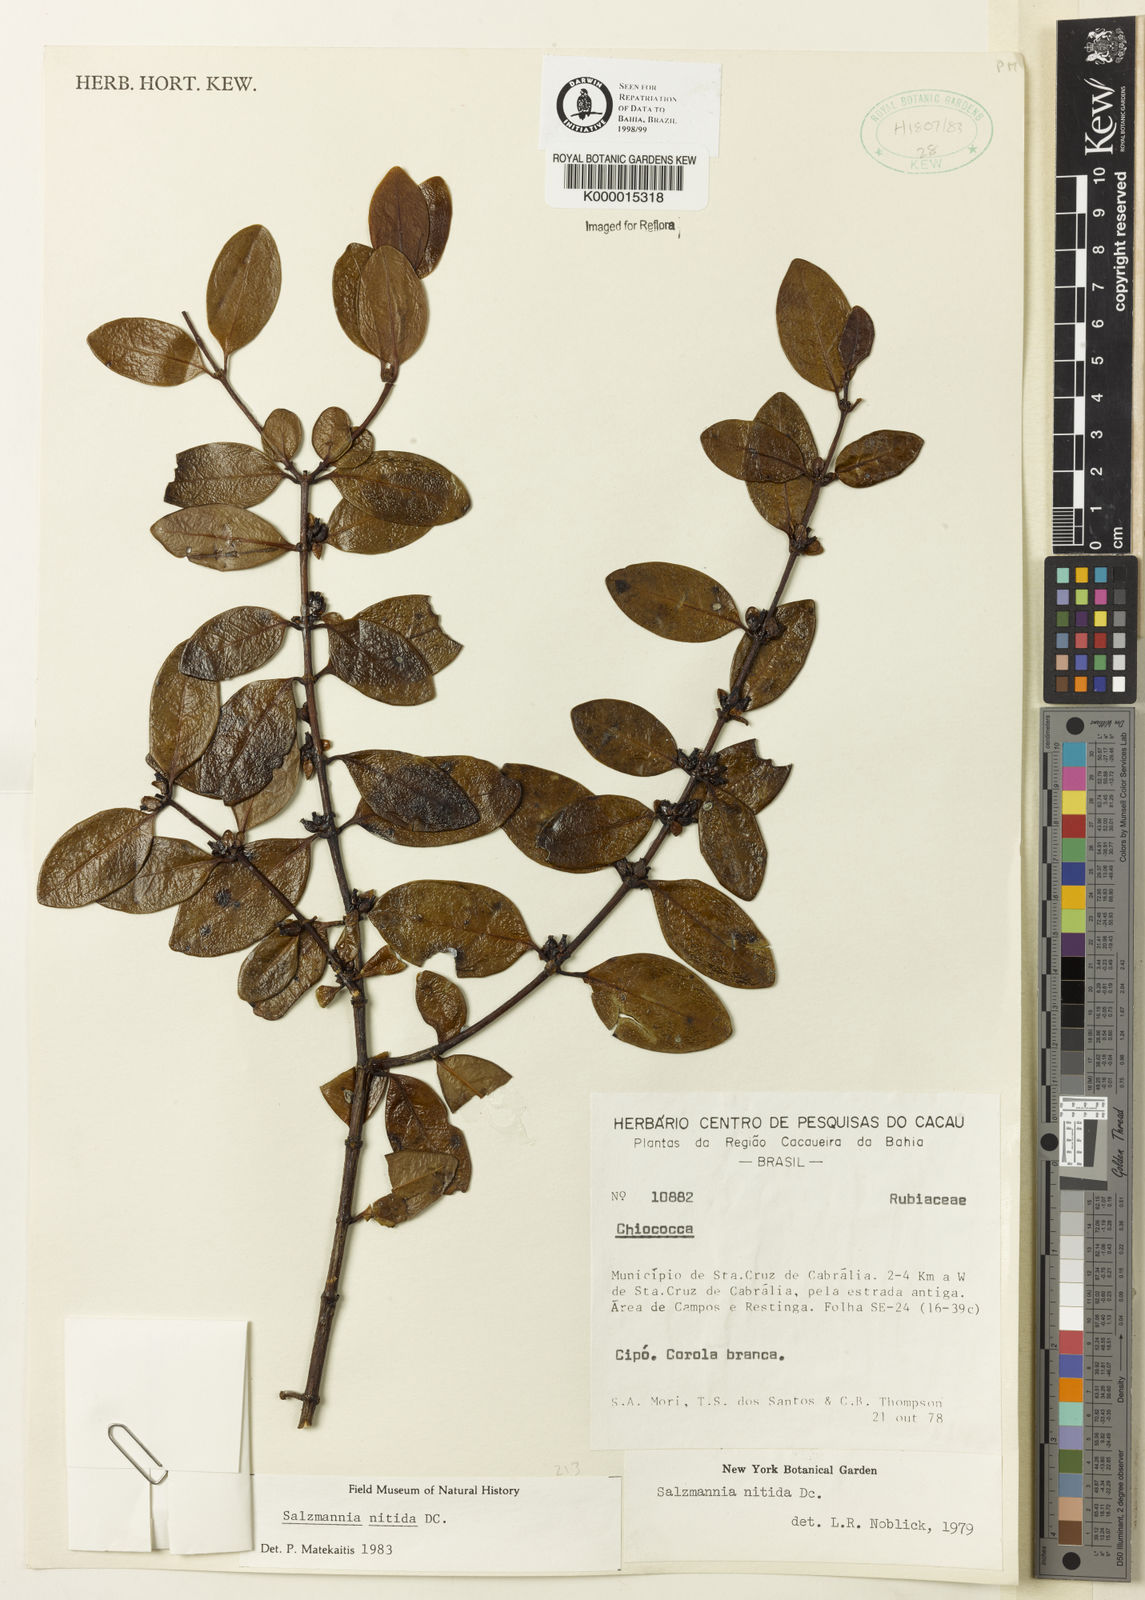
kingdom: Plantae
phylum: Tracheophyta
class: Magnoliopsida
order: Gentianales
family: Rubiaceae
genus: Salzmannia
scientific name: Salzmannia nitida
